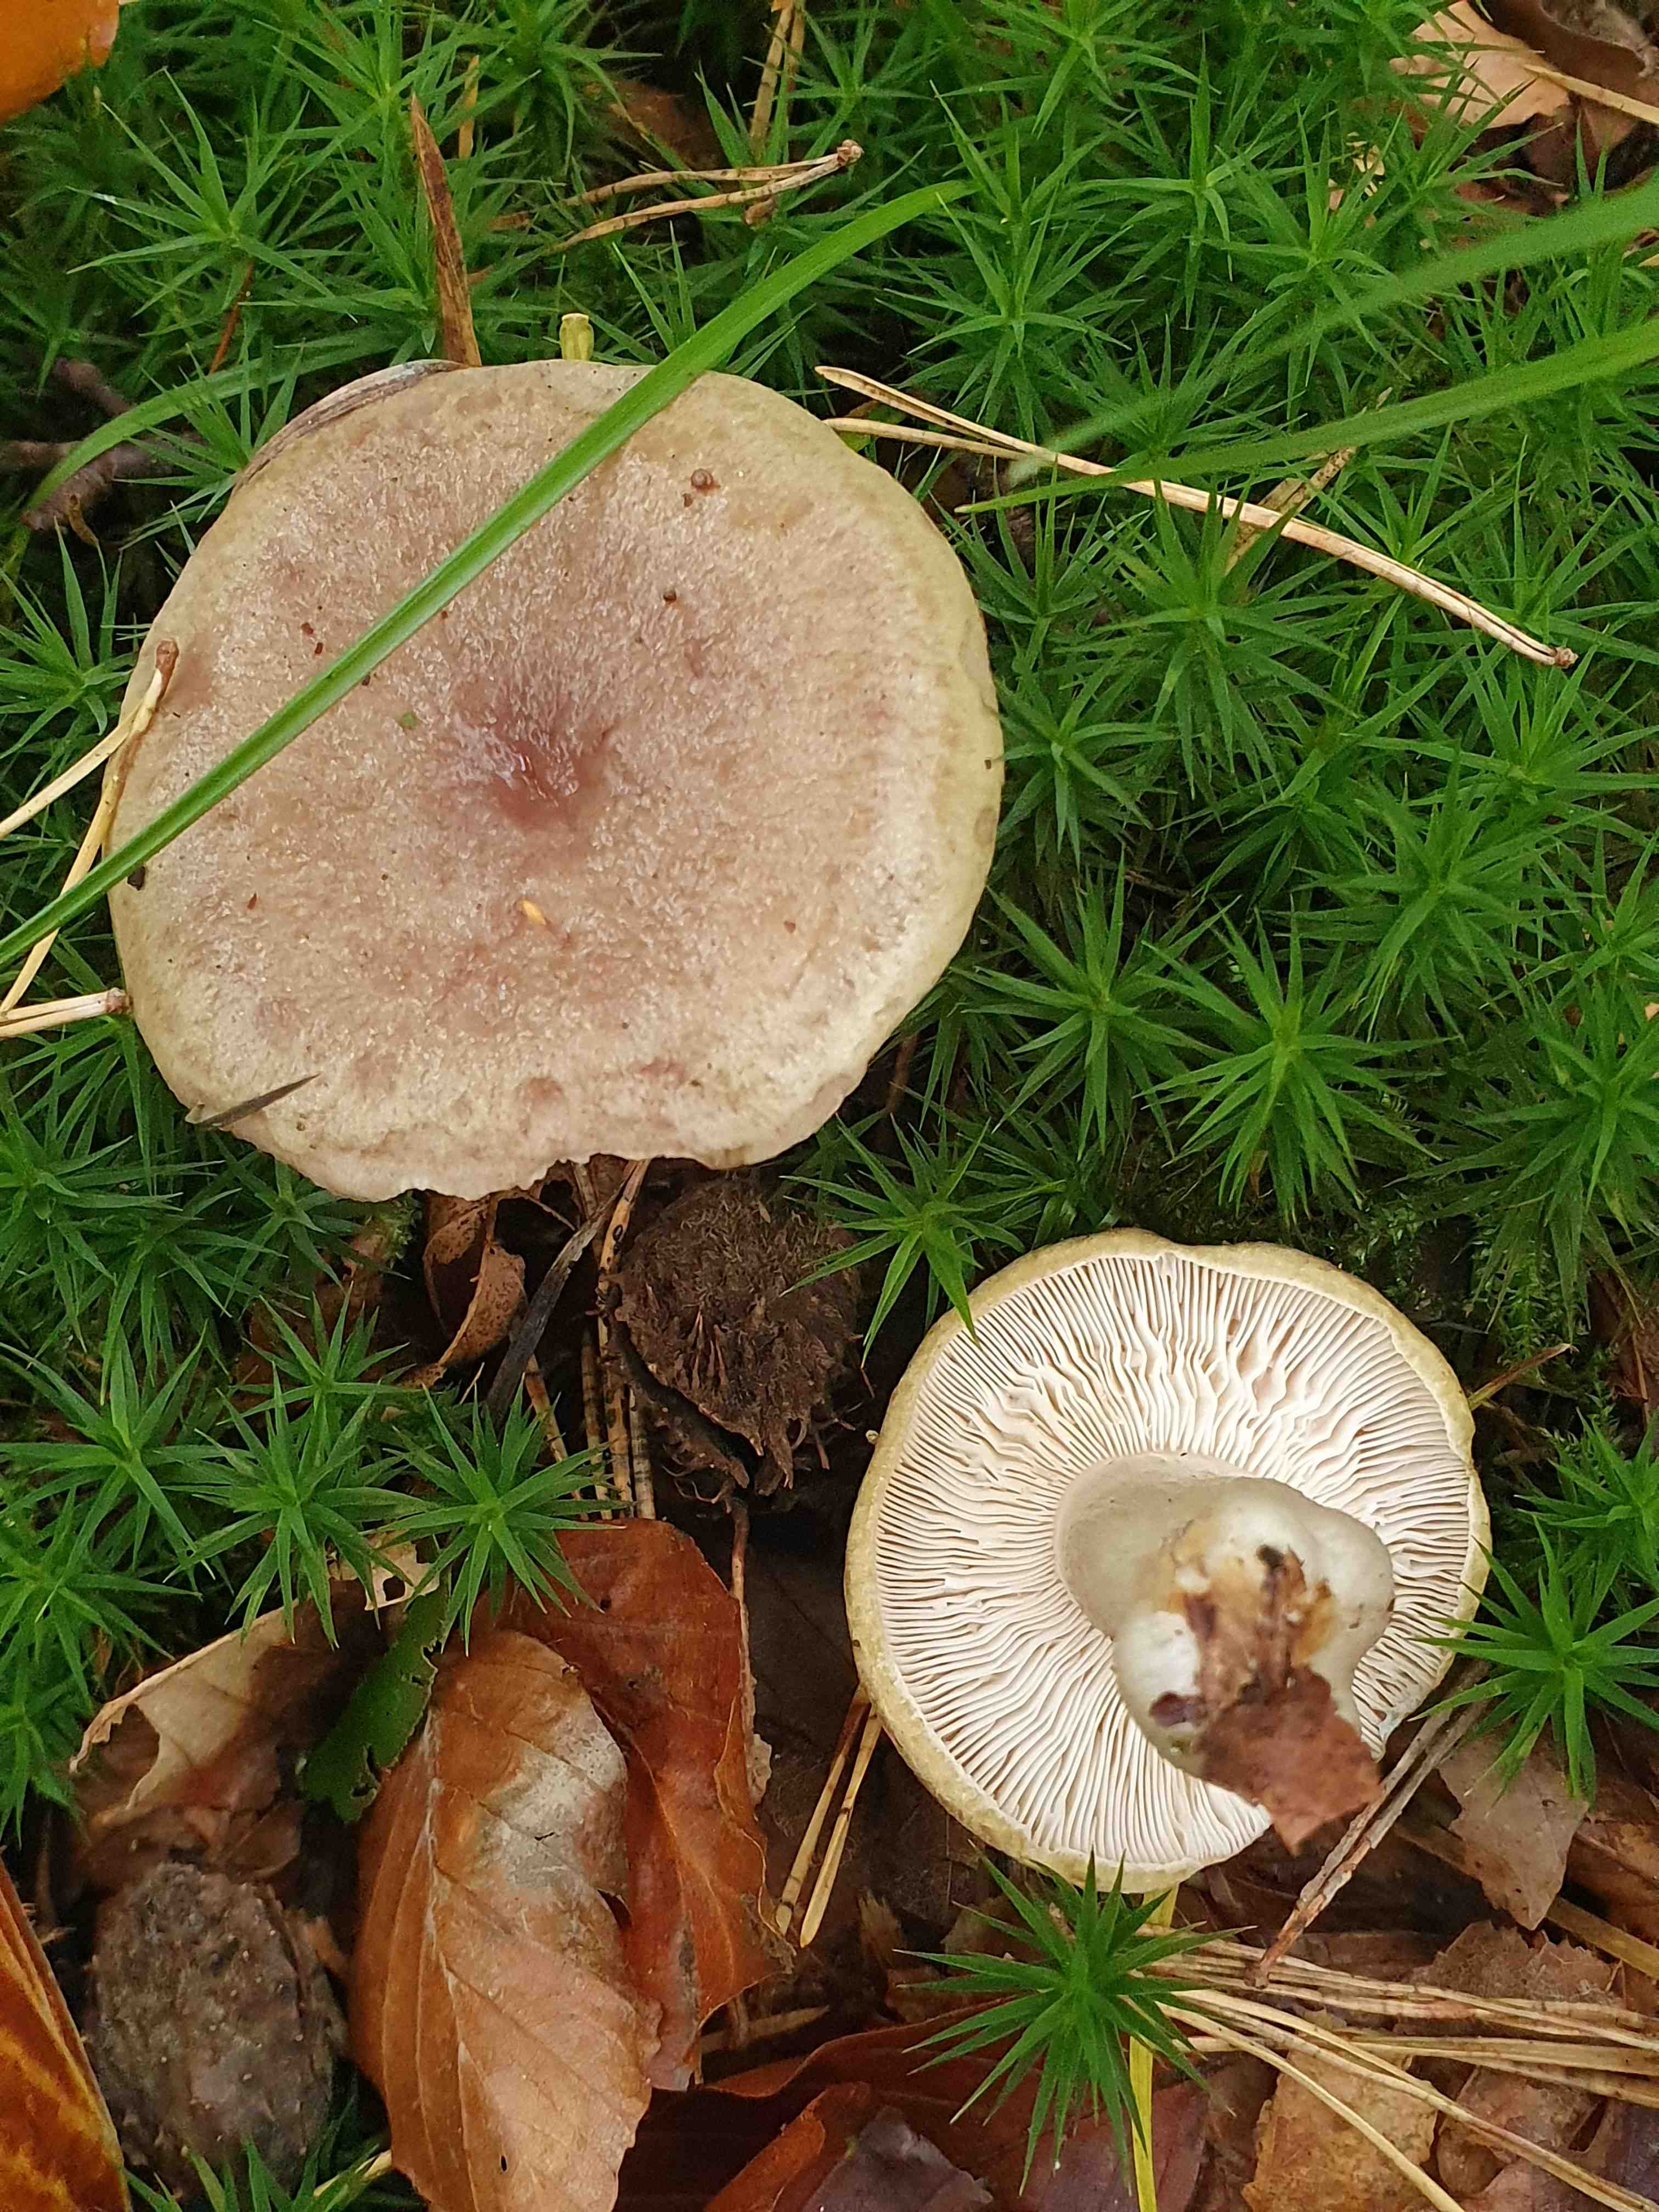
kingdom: Fungi
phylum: Basidiomycota
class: Agaricomycetes
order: Russulales
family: Russulaceae
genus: Lactarius
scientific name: Lactarius blennius
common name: dråbeplettet mælkehat
